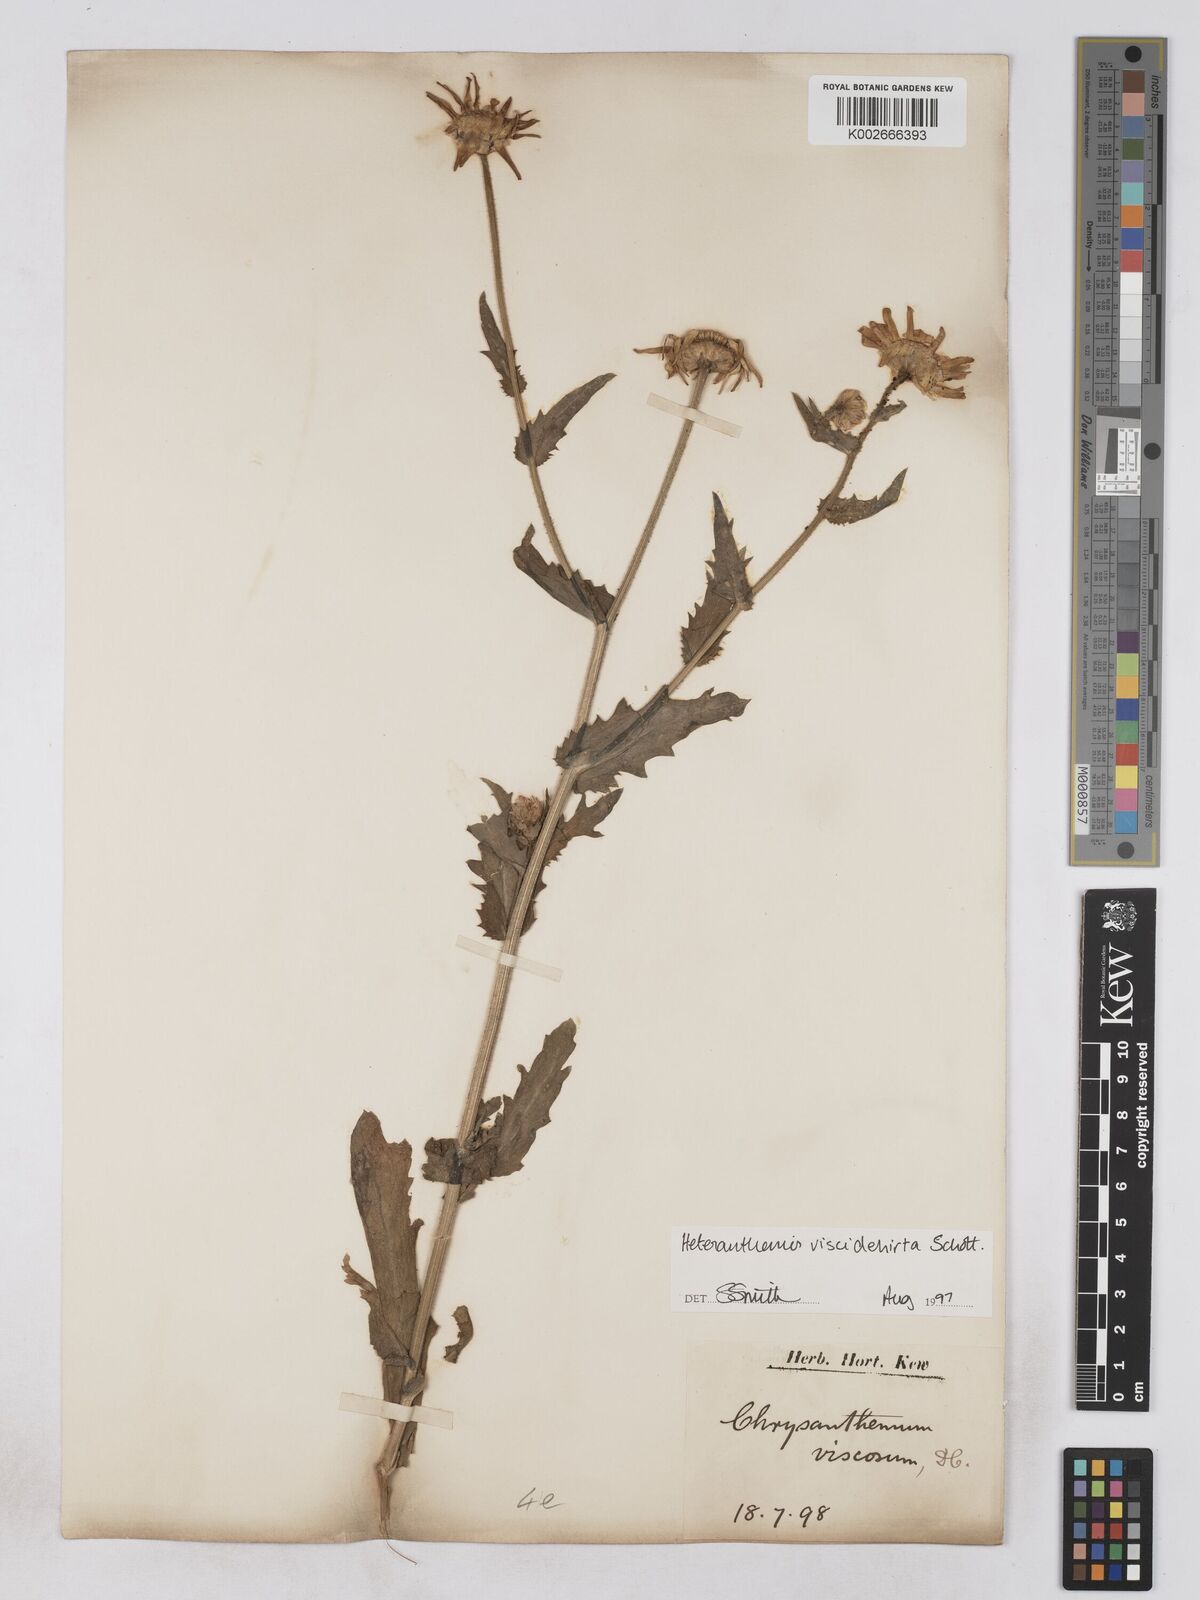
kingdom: Plantae
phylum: Tracheophyta
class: Magnoliopsida
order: Asterales
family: Asteraceae
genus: Heteranthemis
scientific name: Heteranthemis
